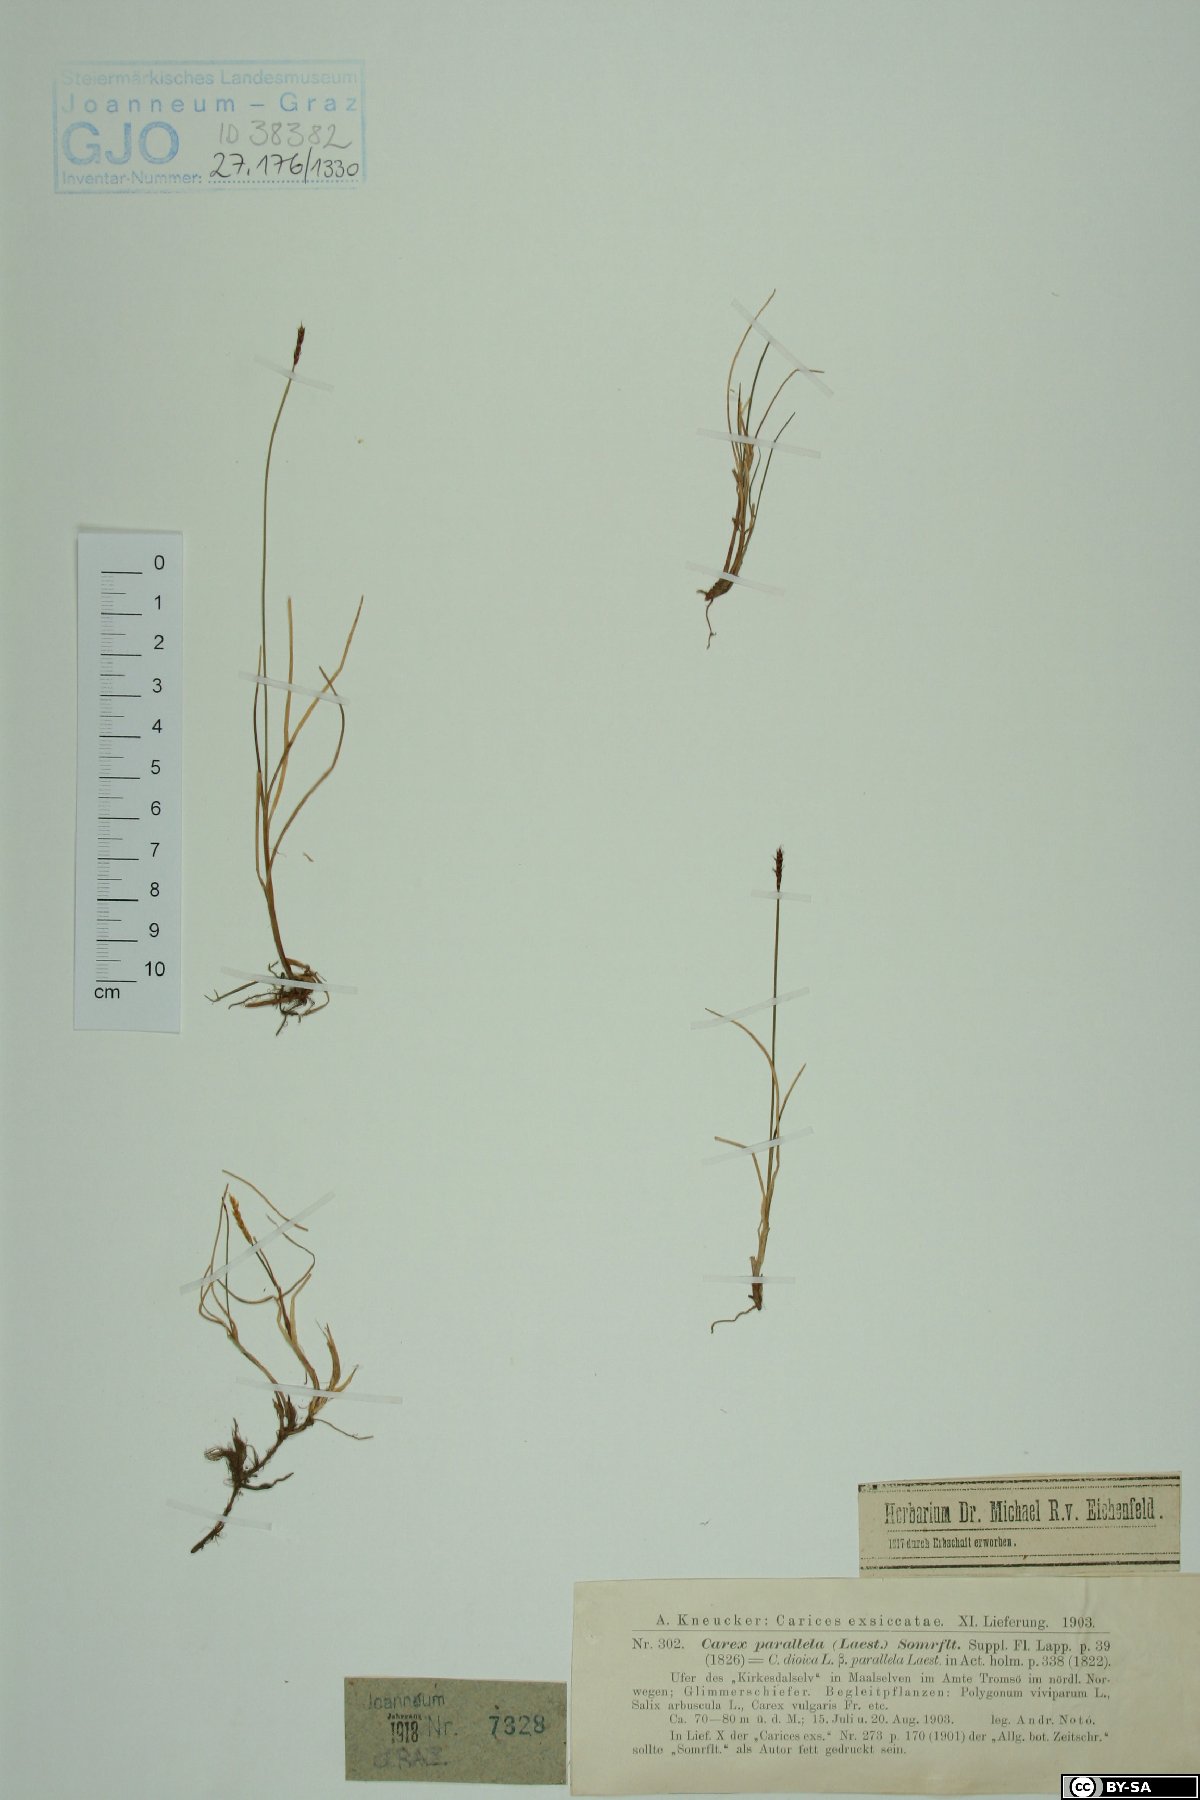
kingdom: Plantae
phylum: Tracheophyta
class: Liliopsida
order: Poales
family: Cyperaceae
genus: Carex
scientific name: Carex parallela
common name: Parallel sedge
